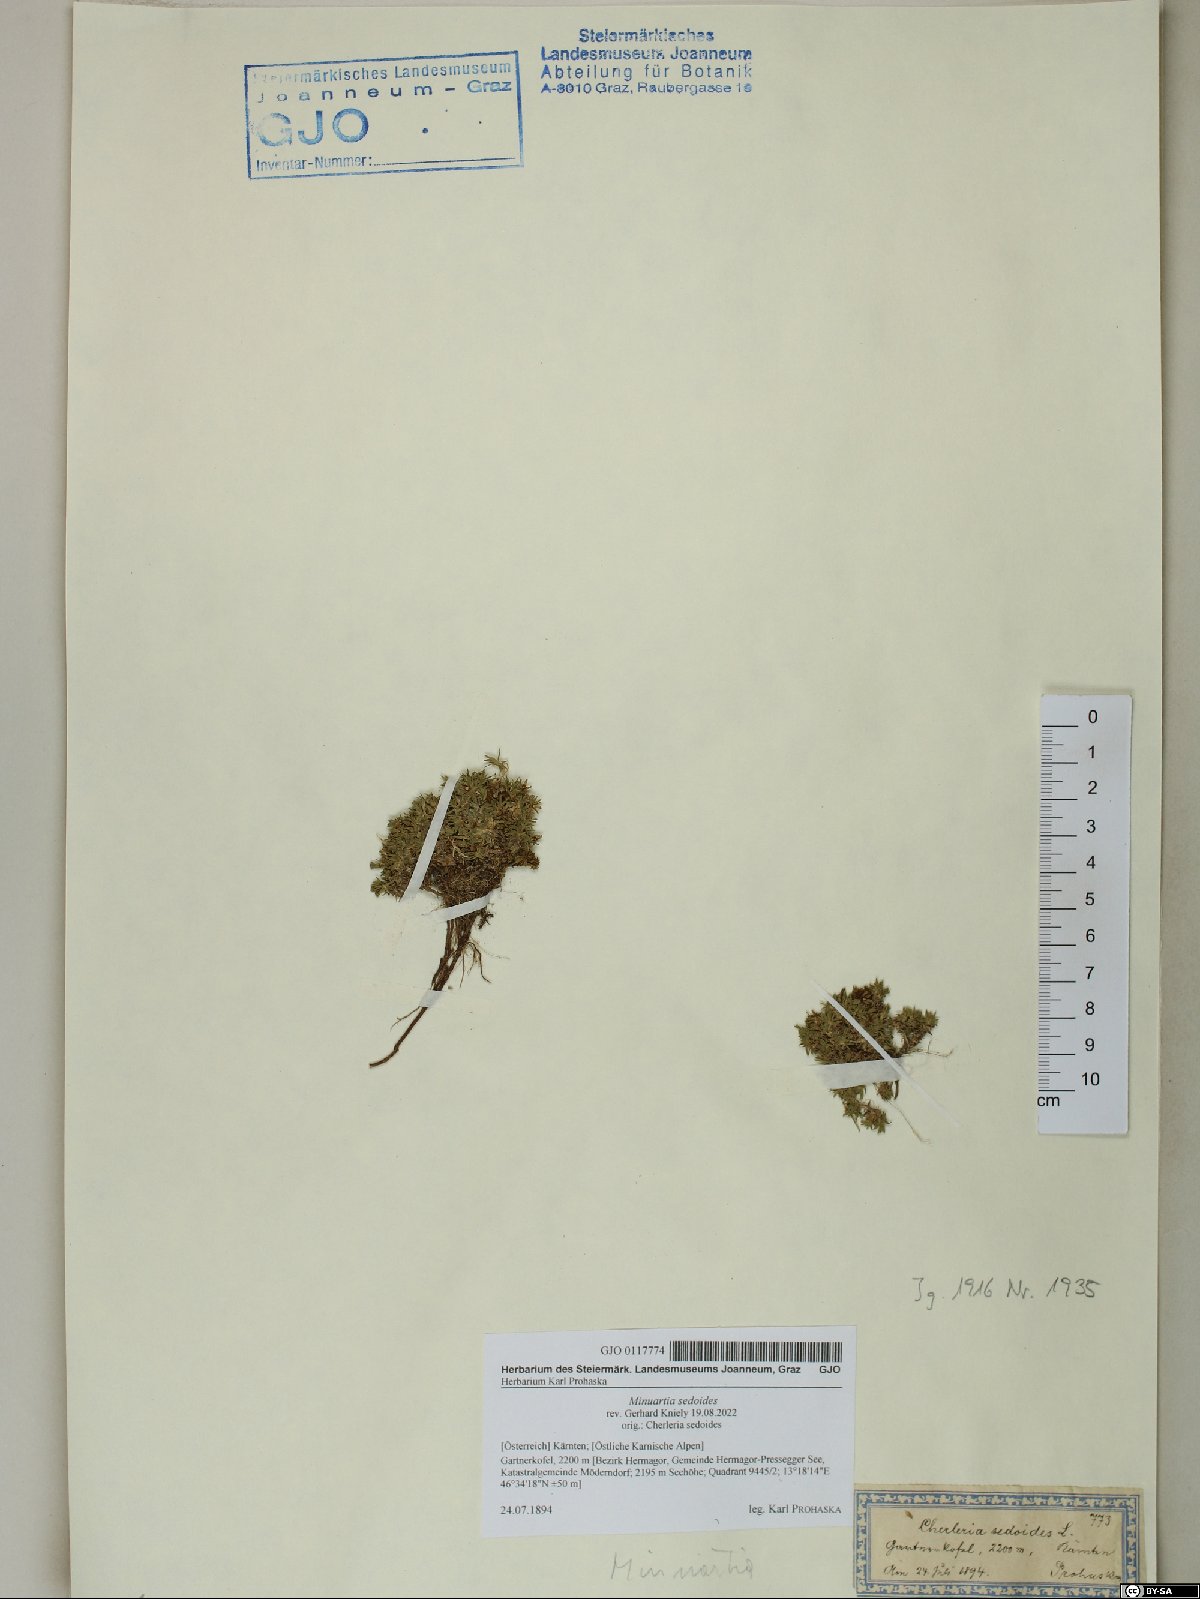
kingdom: Plantae
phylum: Tracheophyta
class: Magnoliopsida
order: Caryophyllales
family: Caryophyllaceae
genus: Cherleria
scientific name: Cherleria sedoides
